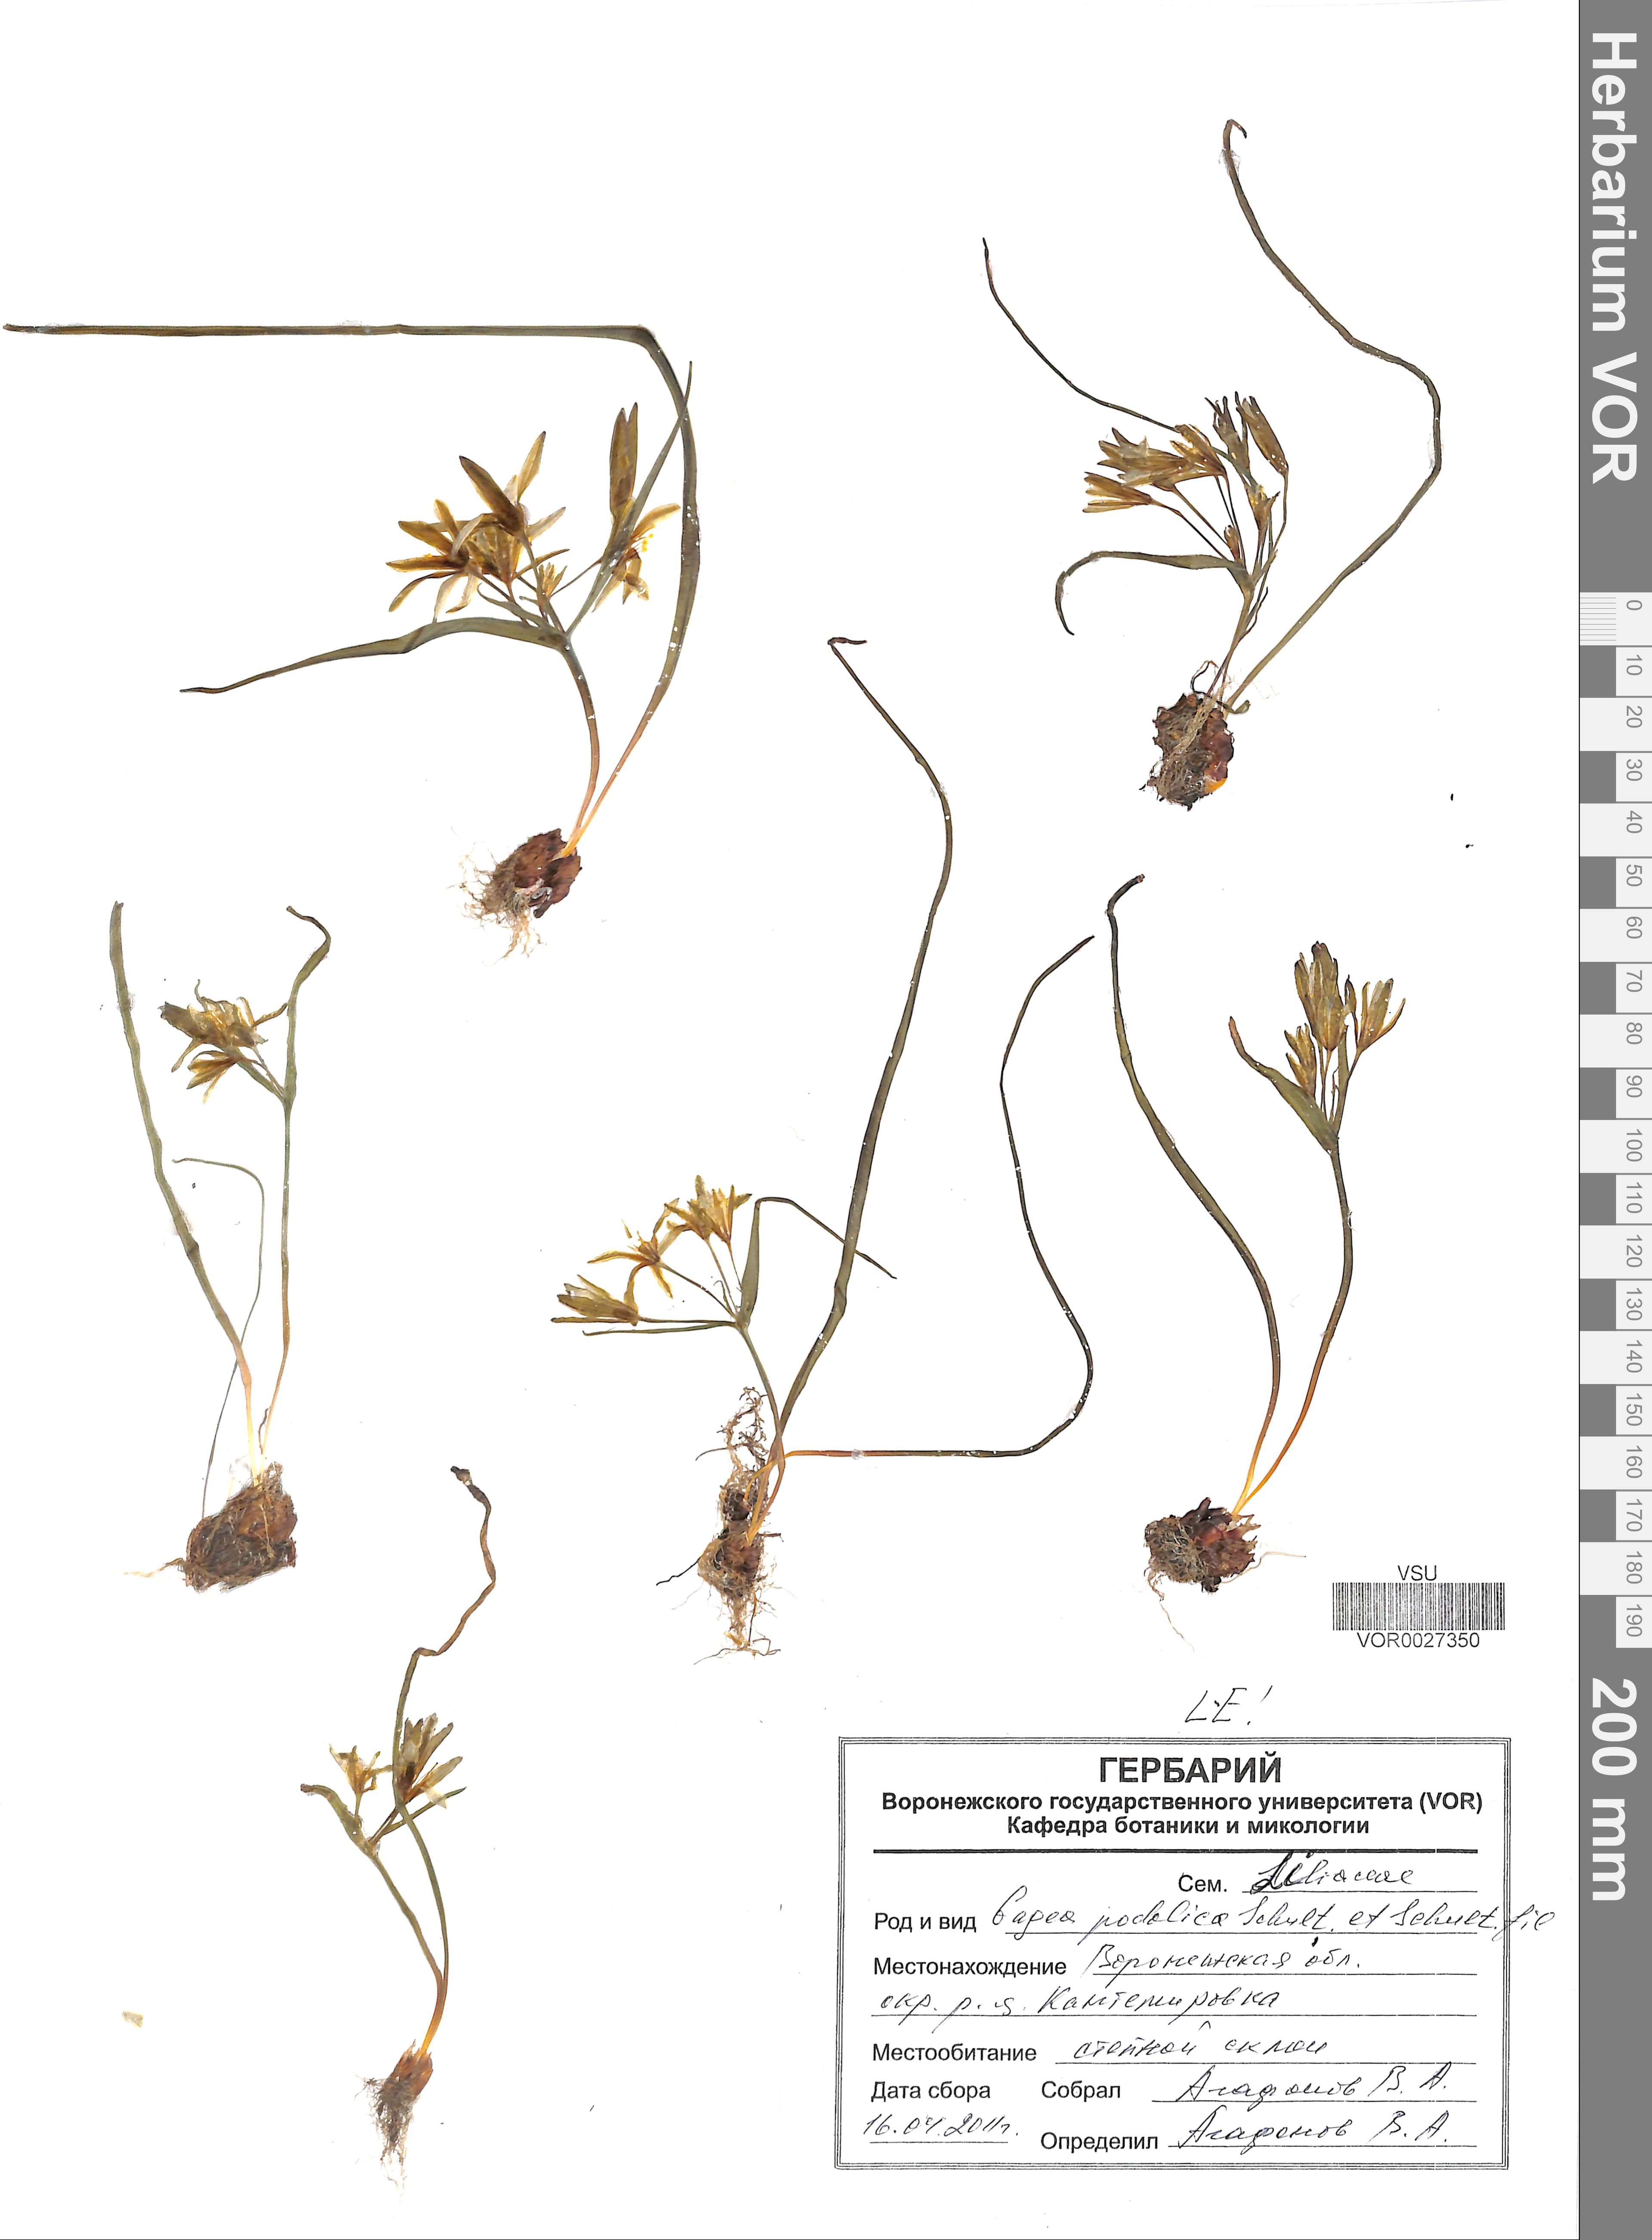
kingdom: Plantae
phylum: Tracheophyta
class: Liliopsida
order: Liliales
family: Liliaceae
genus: Gagea
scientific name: Gagea podolica
